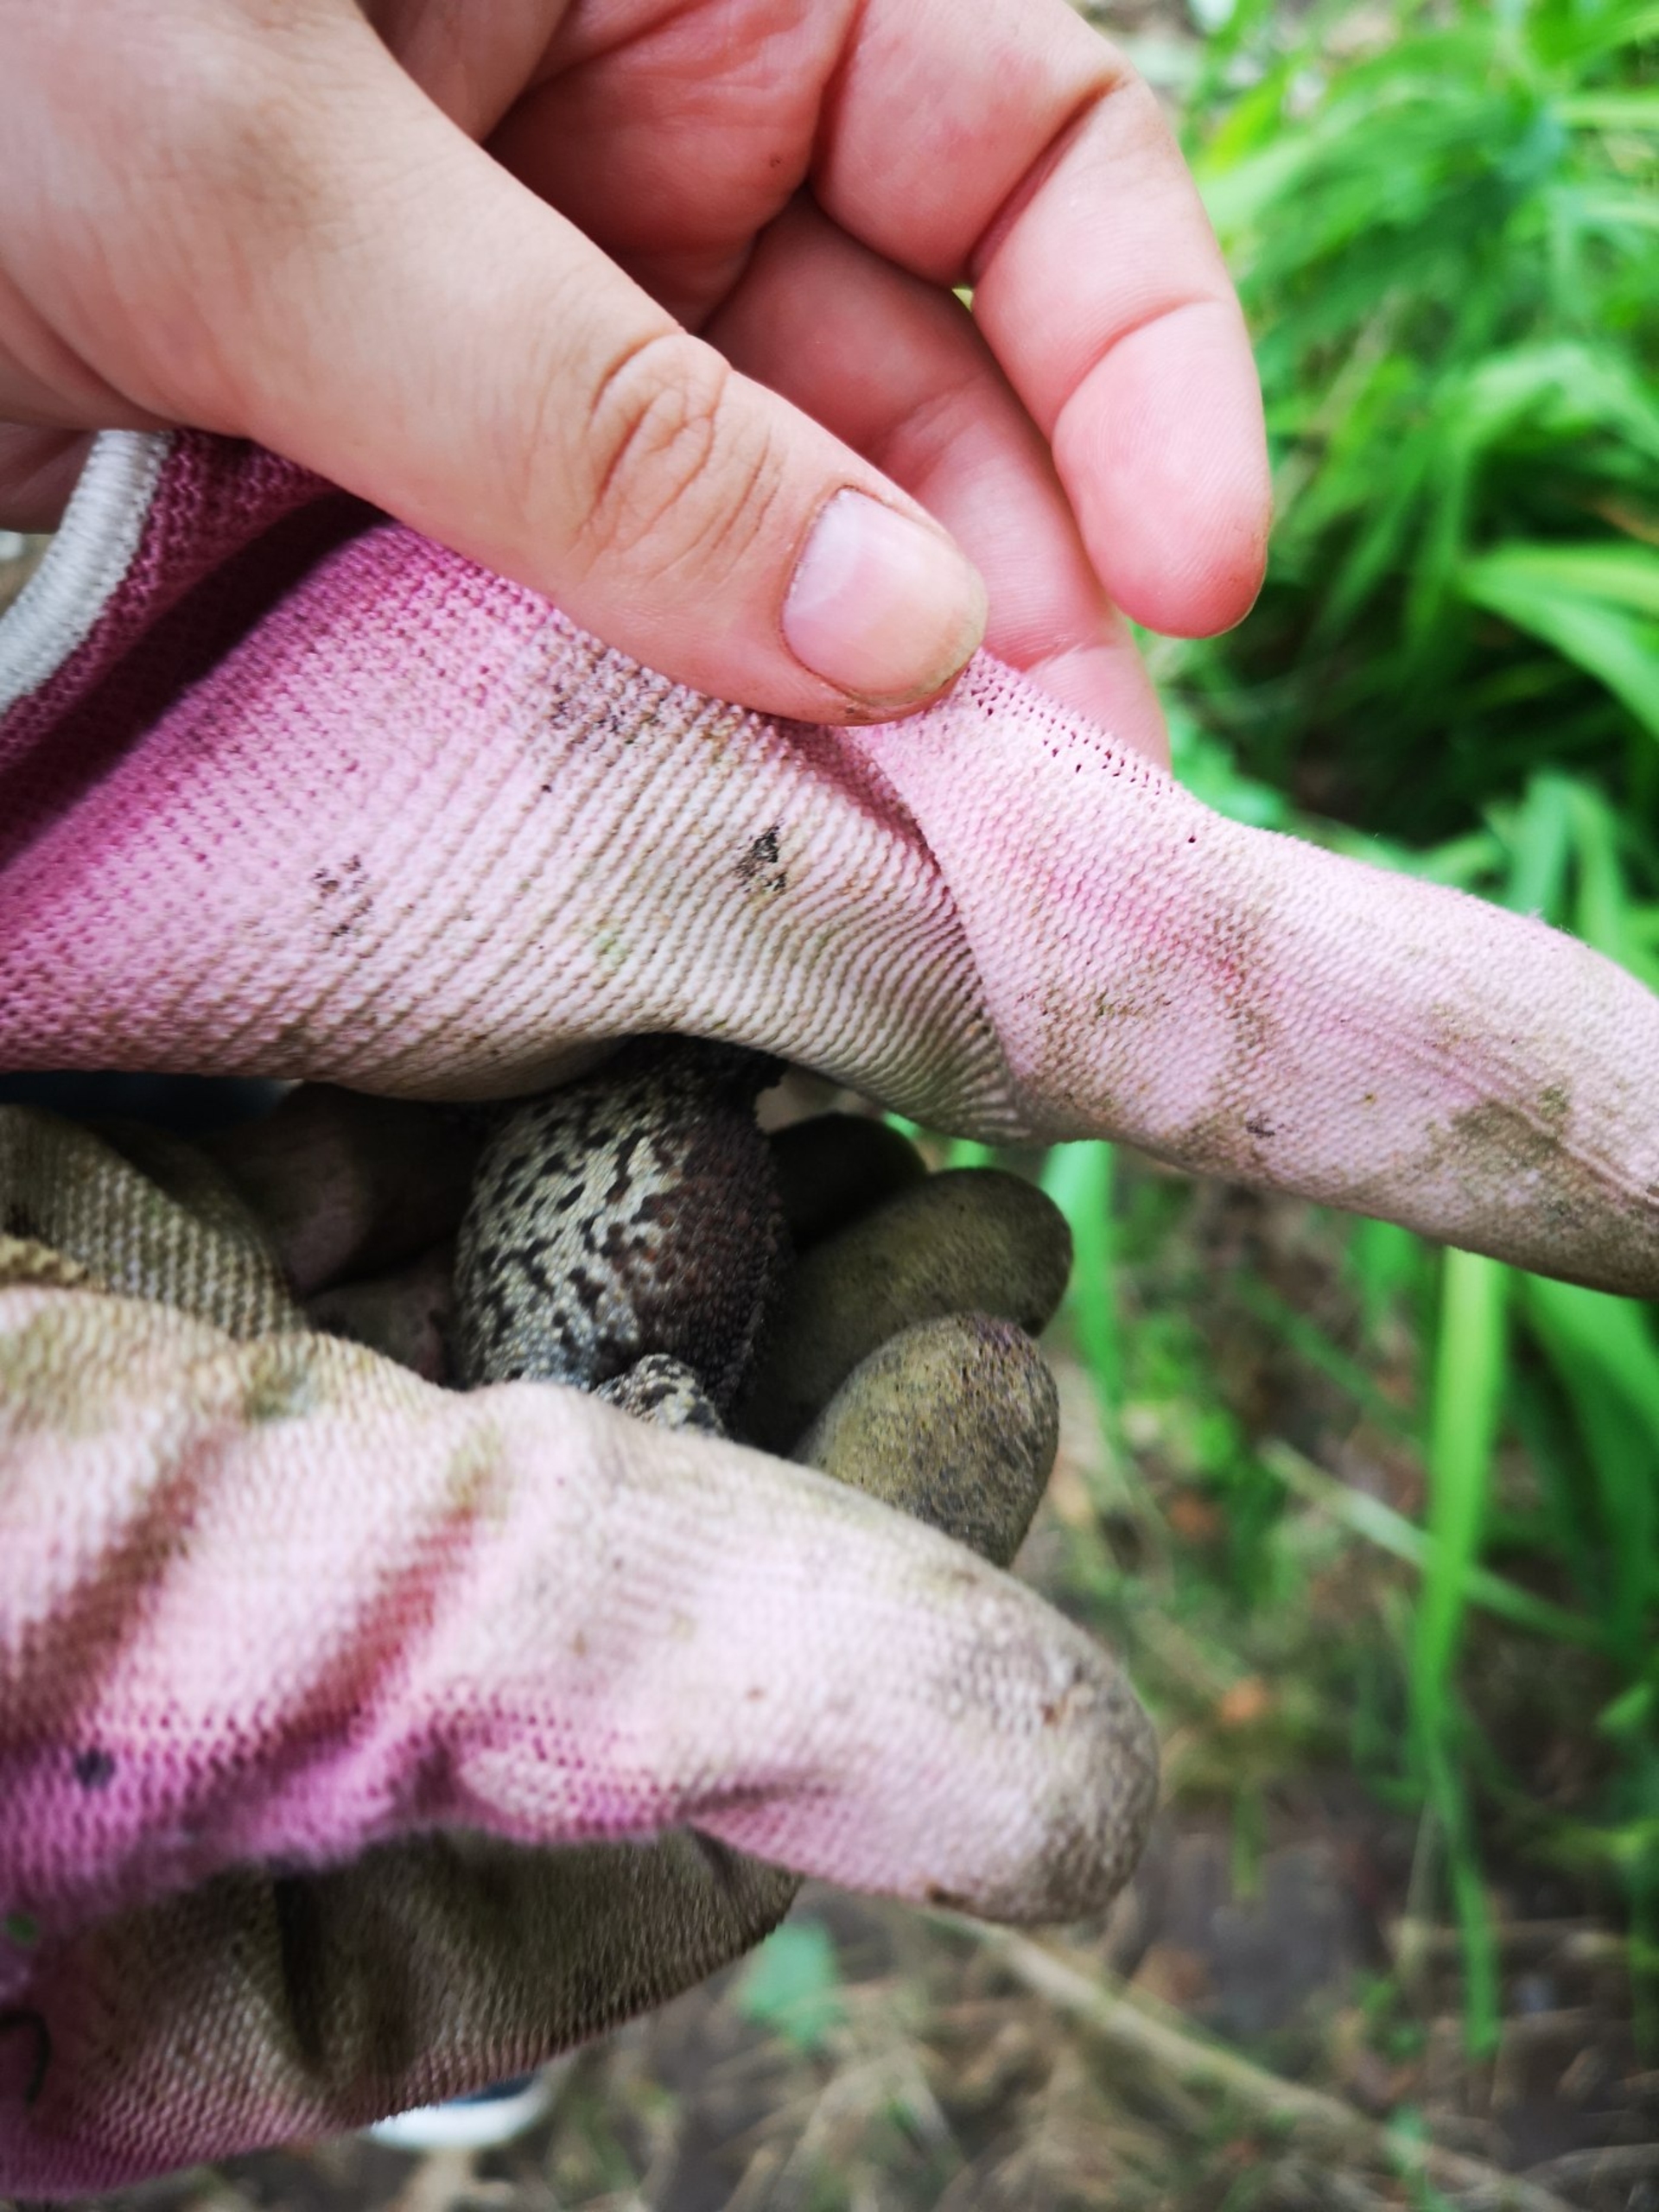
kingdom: Animalia
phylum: Chordata
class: Amphibia
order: Anura
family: Bufonidae
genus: Bufo
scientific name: Bufo bufo
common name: Skrubtudse
